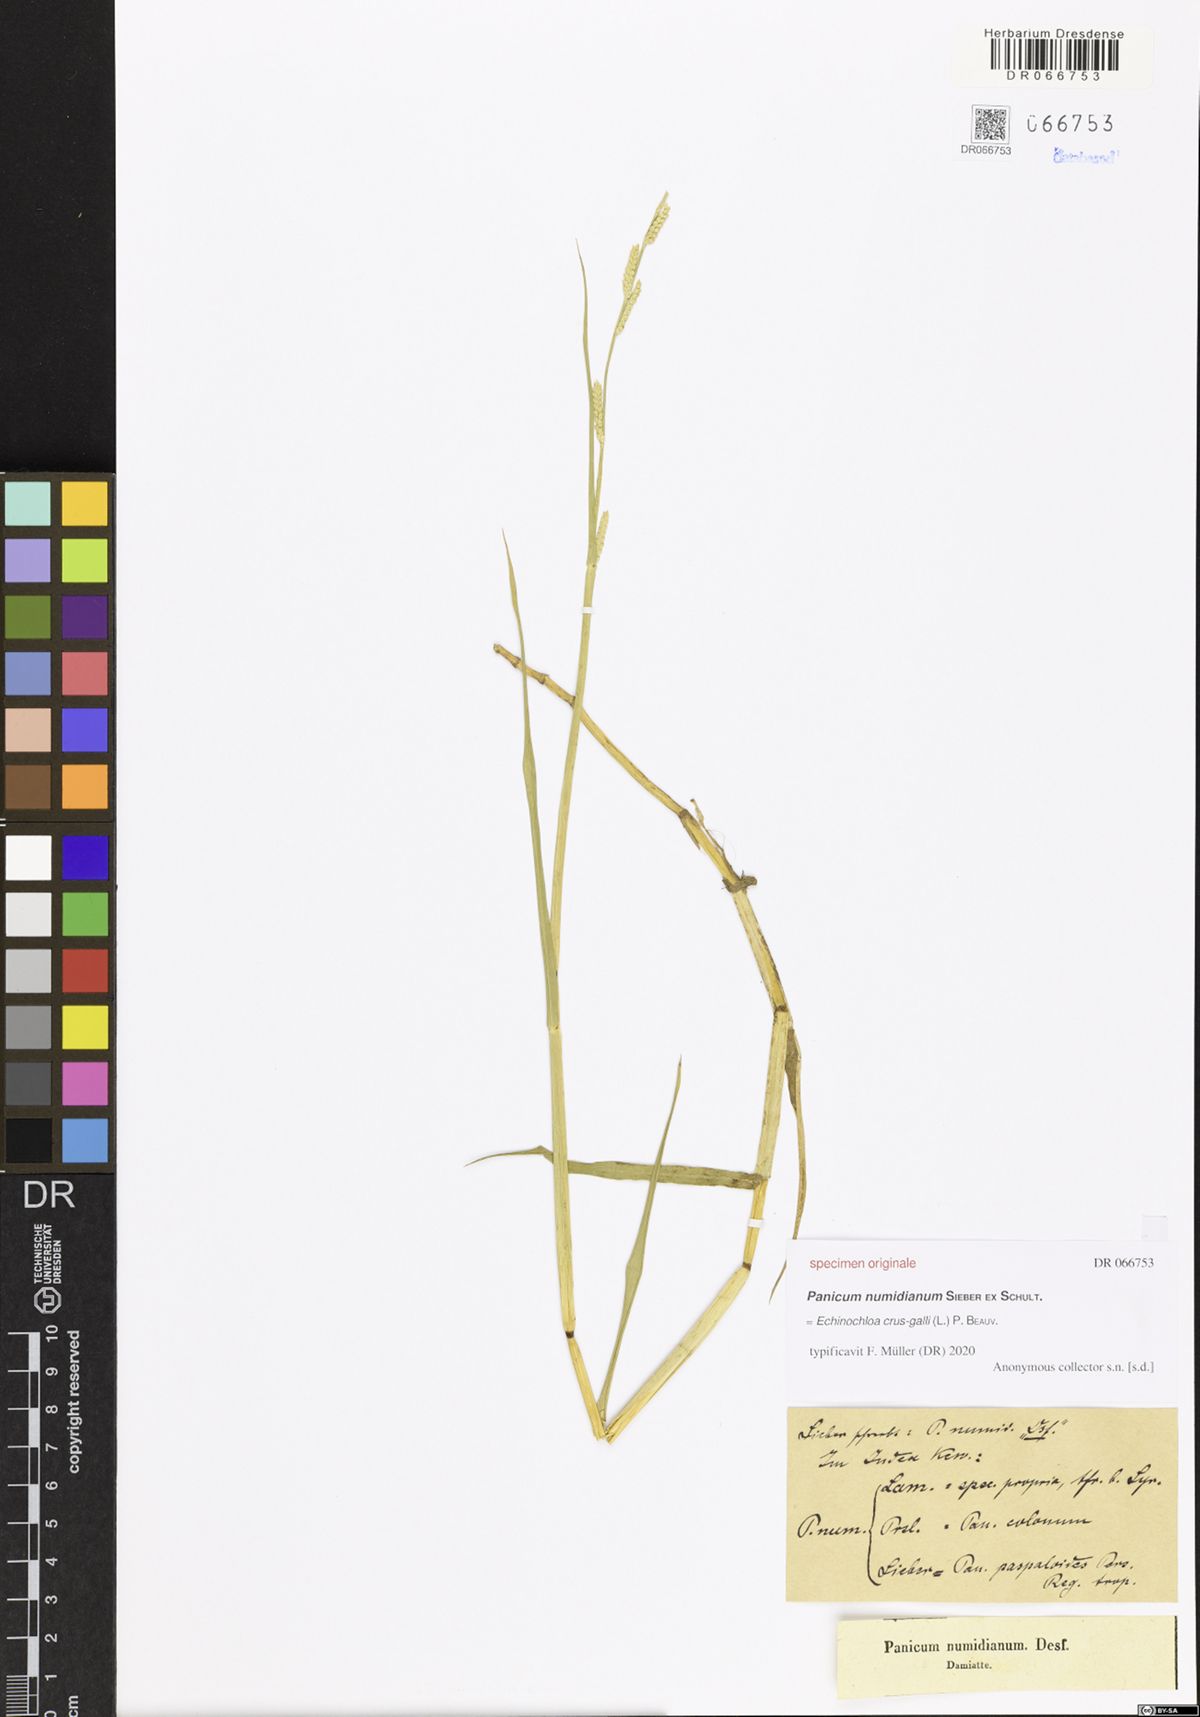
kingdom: Plantae
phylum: Tracheophyta
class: Liliopsida
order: Poales
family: Poaceae
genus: Echinochloa
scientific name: Echinochloa crus-galli
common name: Cockspur
